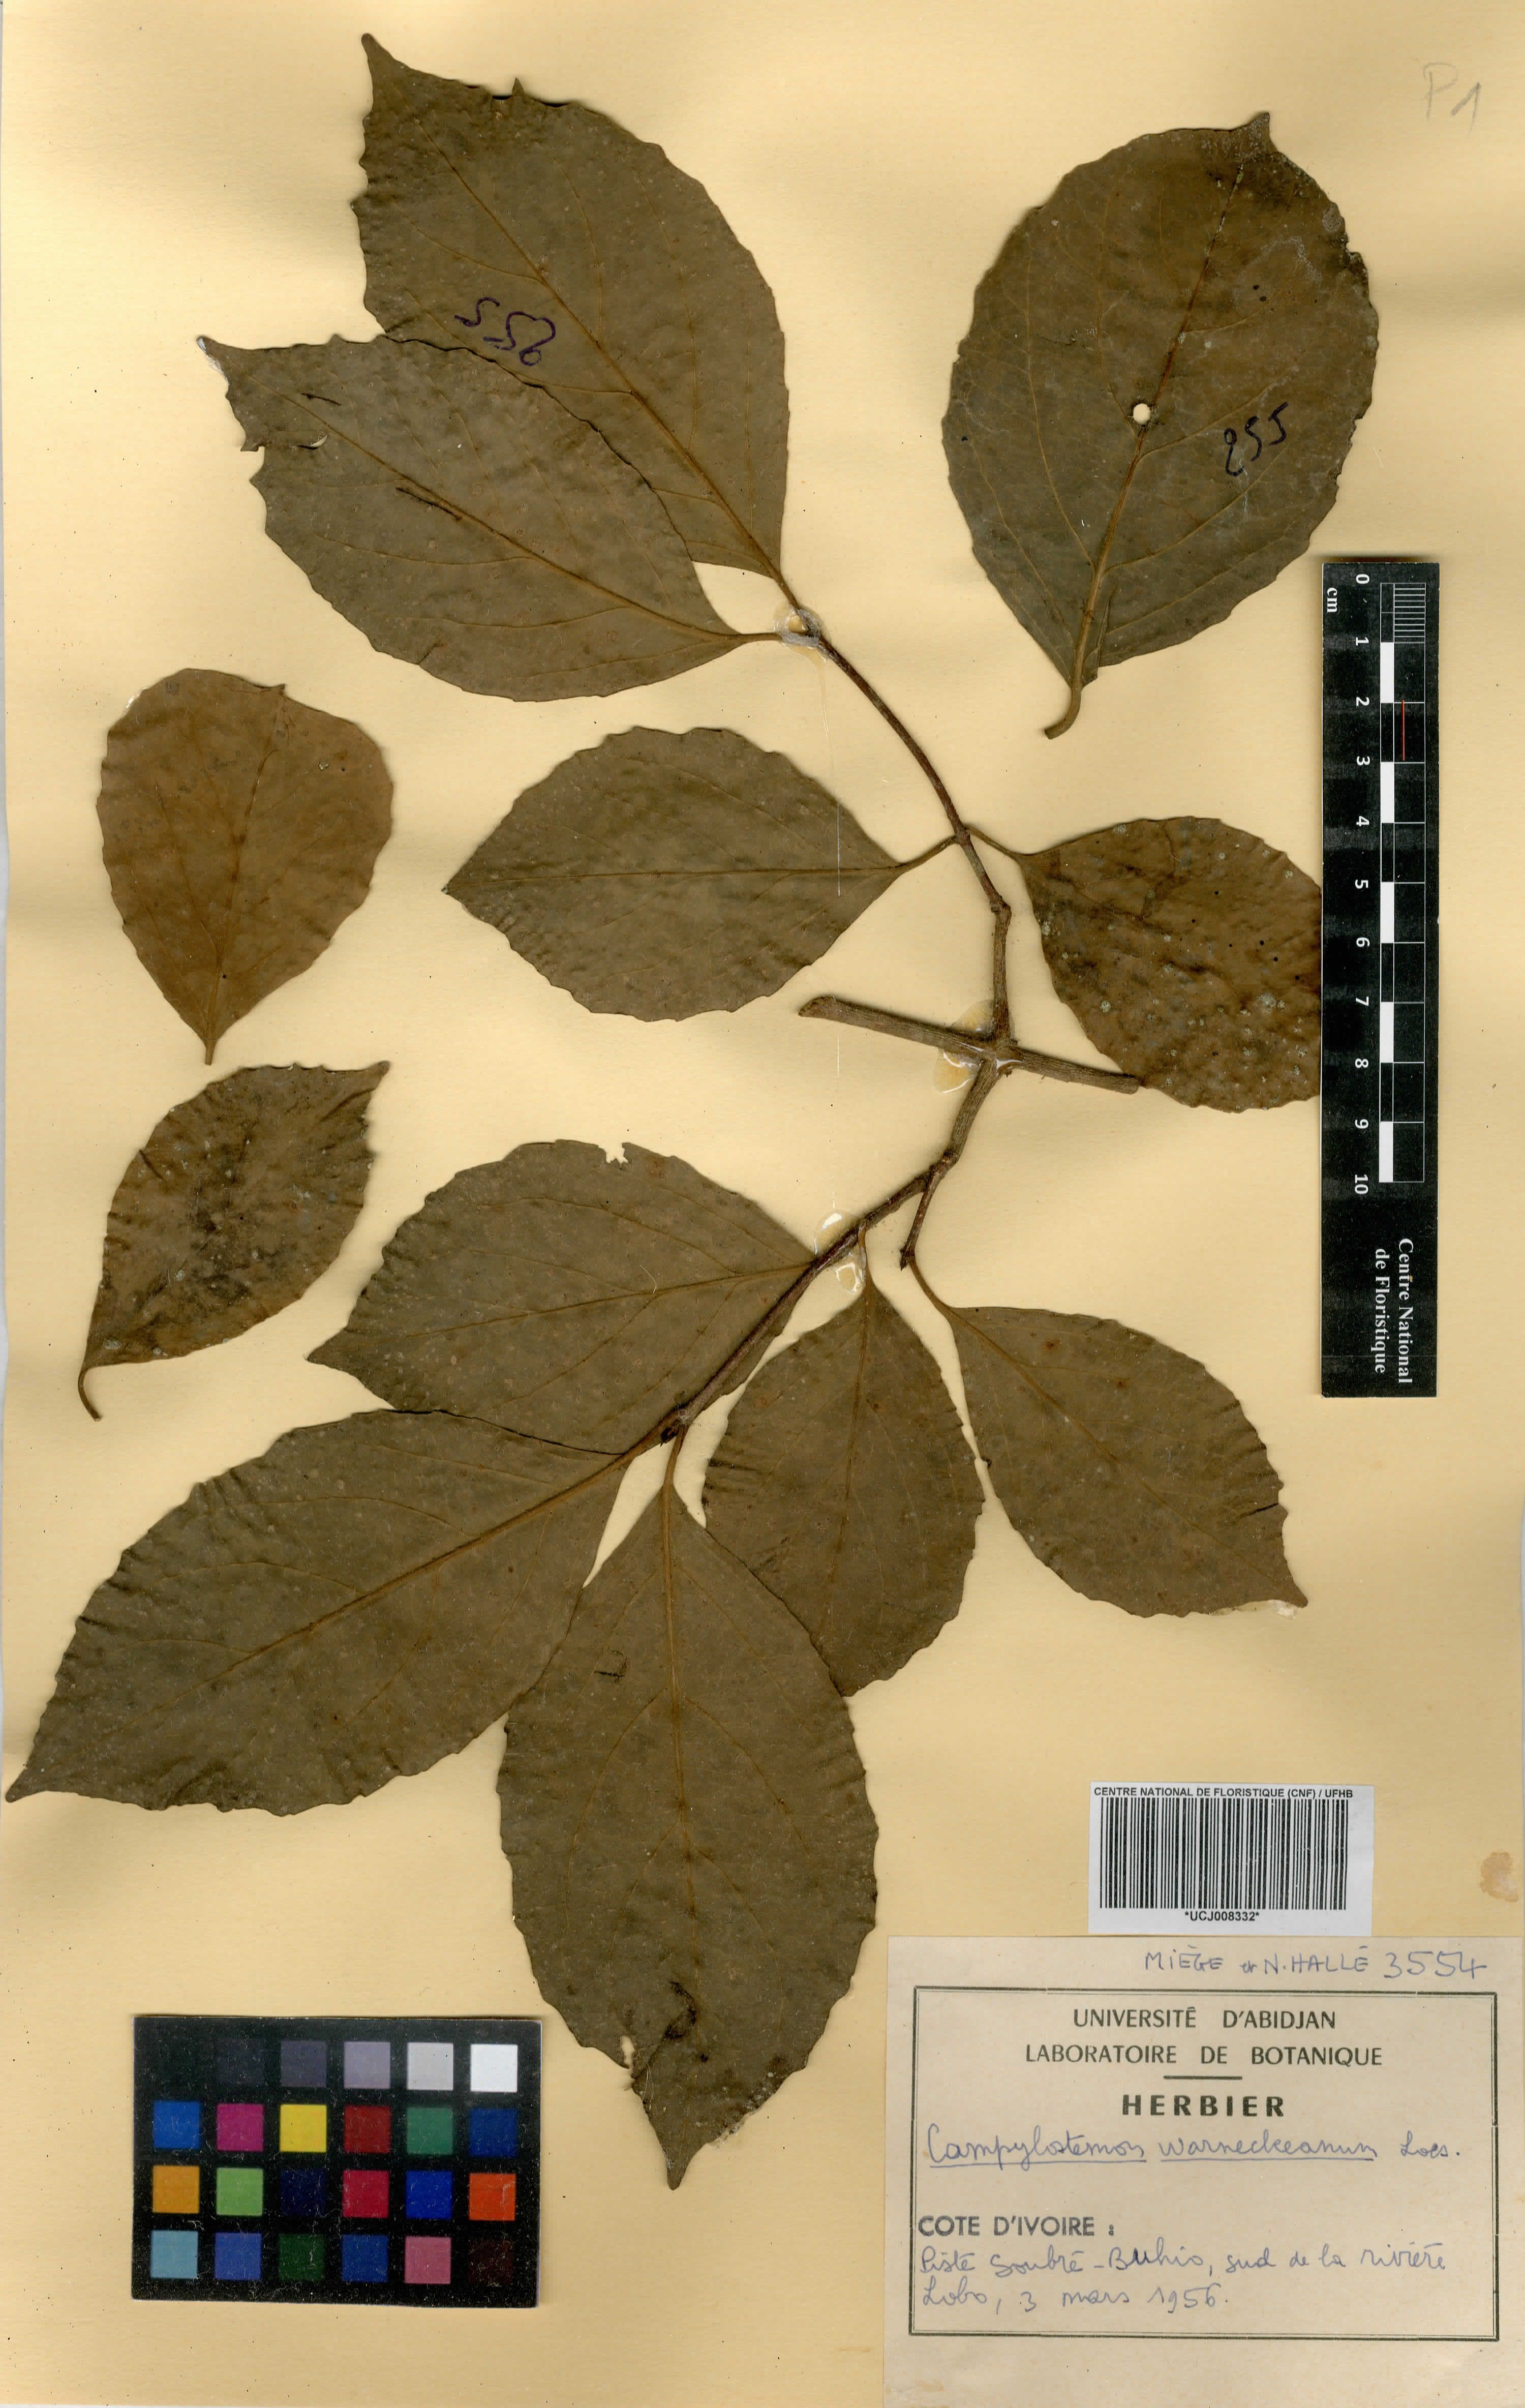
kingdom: Plantae
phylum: Tracheophyta
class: Magnoliopsida
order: Celastrales
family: Celastraceae
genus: Campylostemon
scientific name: Campylostemon warneckeanum
